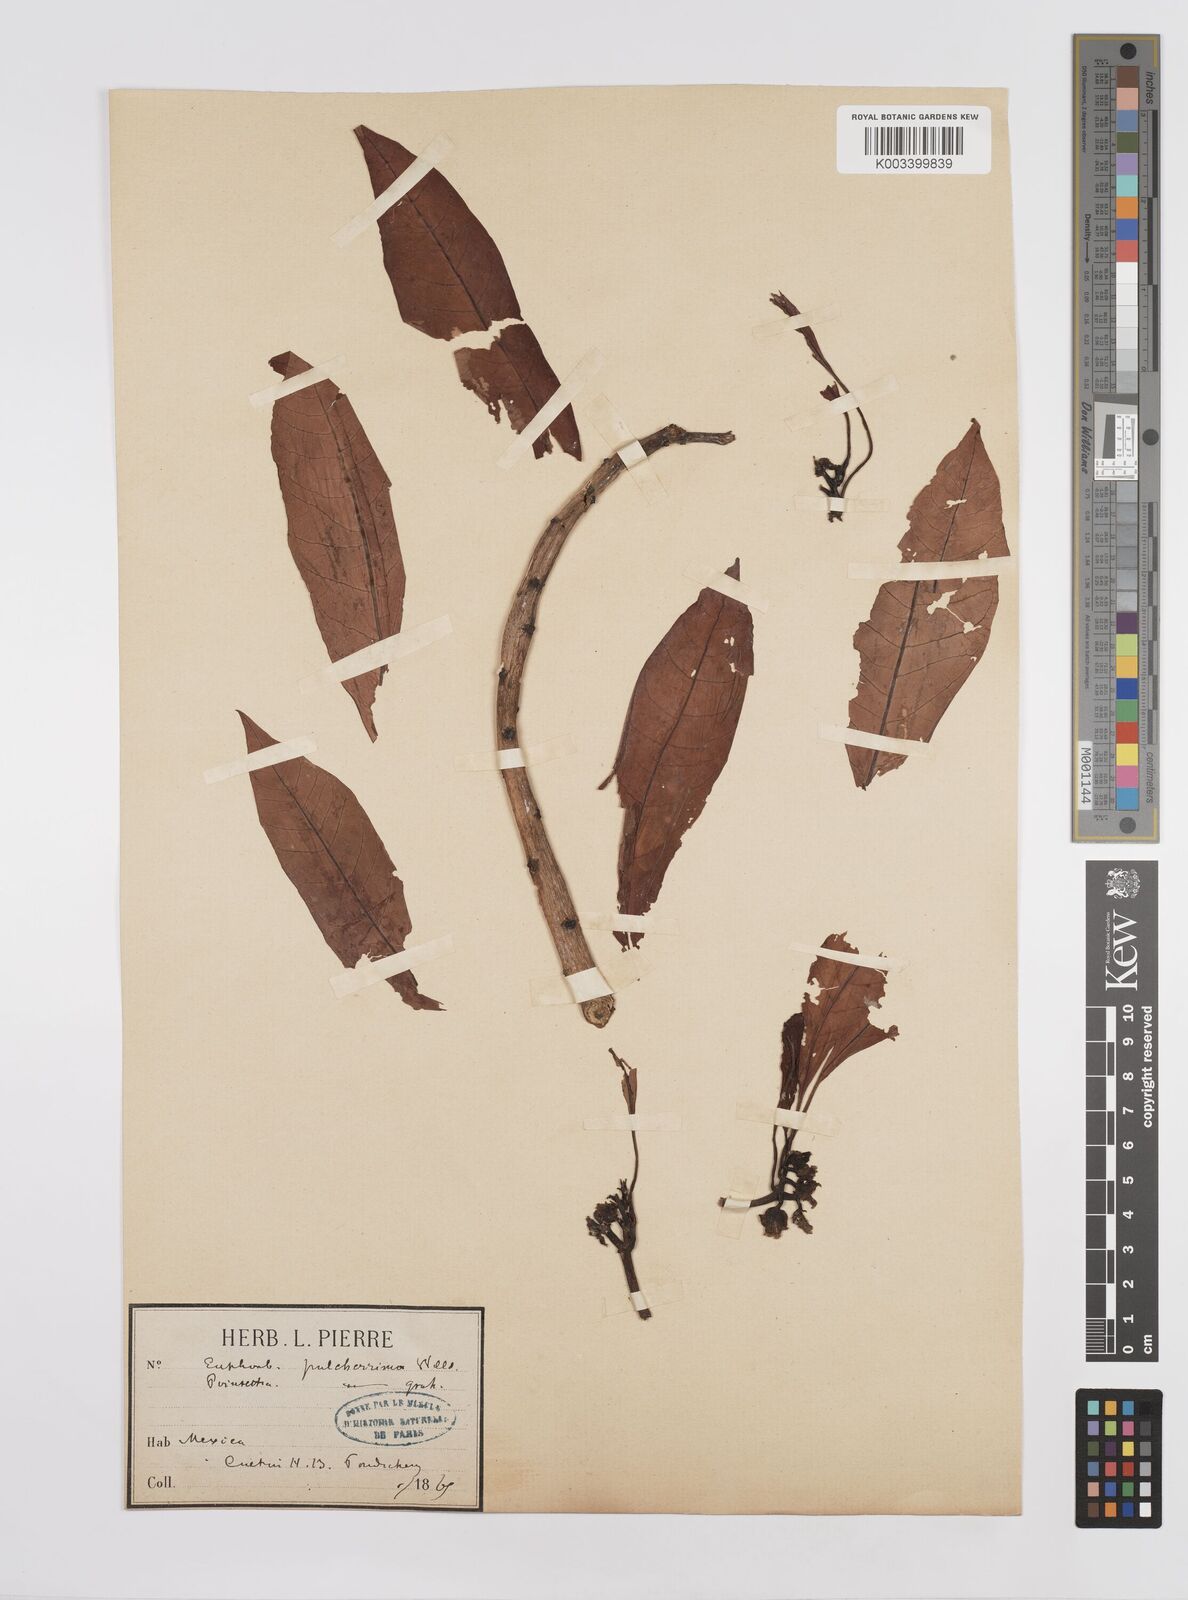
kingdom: Plantae
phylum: Tracheophyta
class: Magnoliopsida
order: Malpighiales
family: Euphorbiaceae
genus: Euphorbia
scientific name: Euphorbia pulcherrima
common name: Christmas-flower
